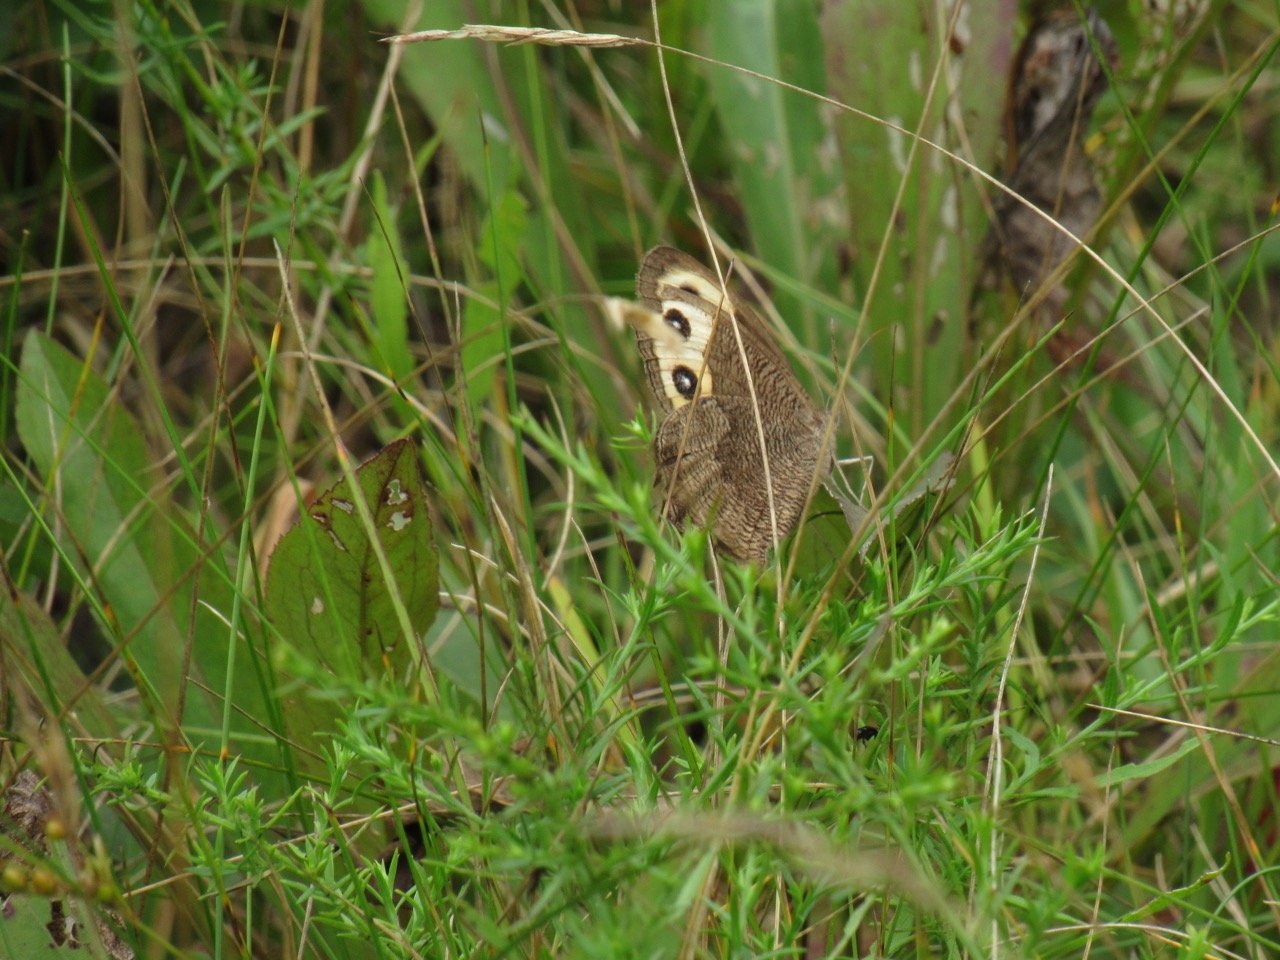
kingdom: Animalia
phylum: Arthropoda
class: Insecta
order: Lepidoptera
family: Nymphalidae
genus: Cercyonis
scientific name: Cercyonis pegala
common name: Common Wood-Nymph
